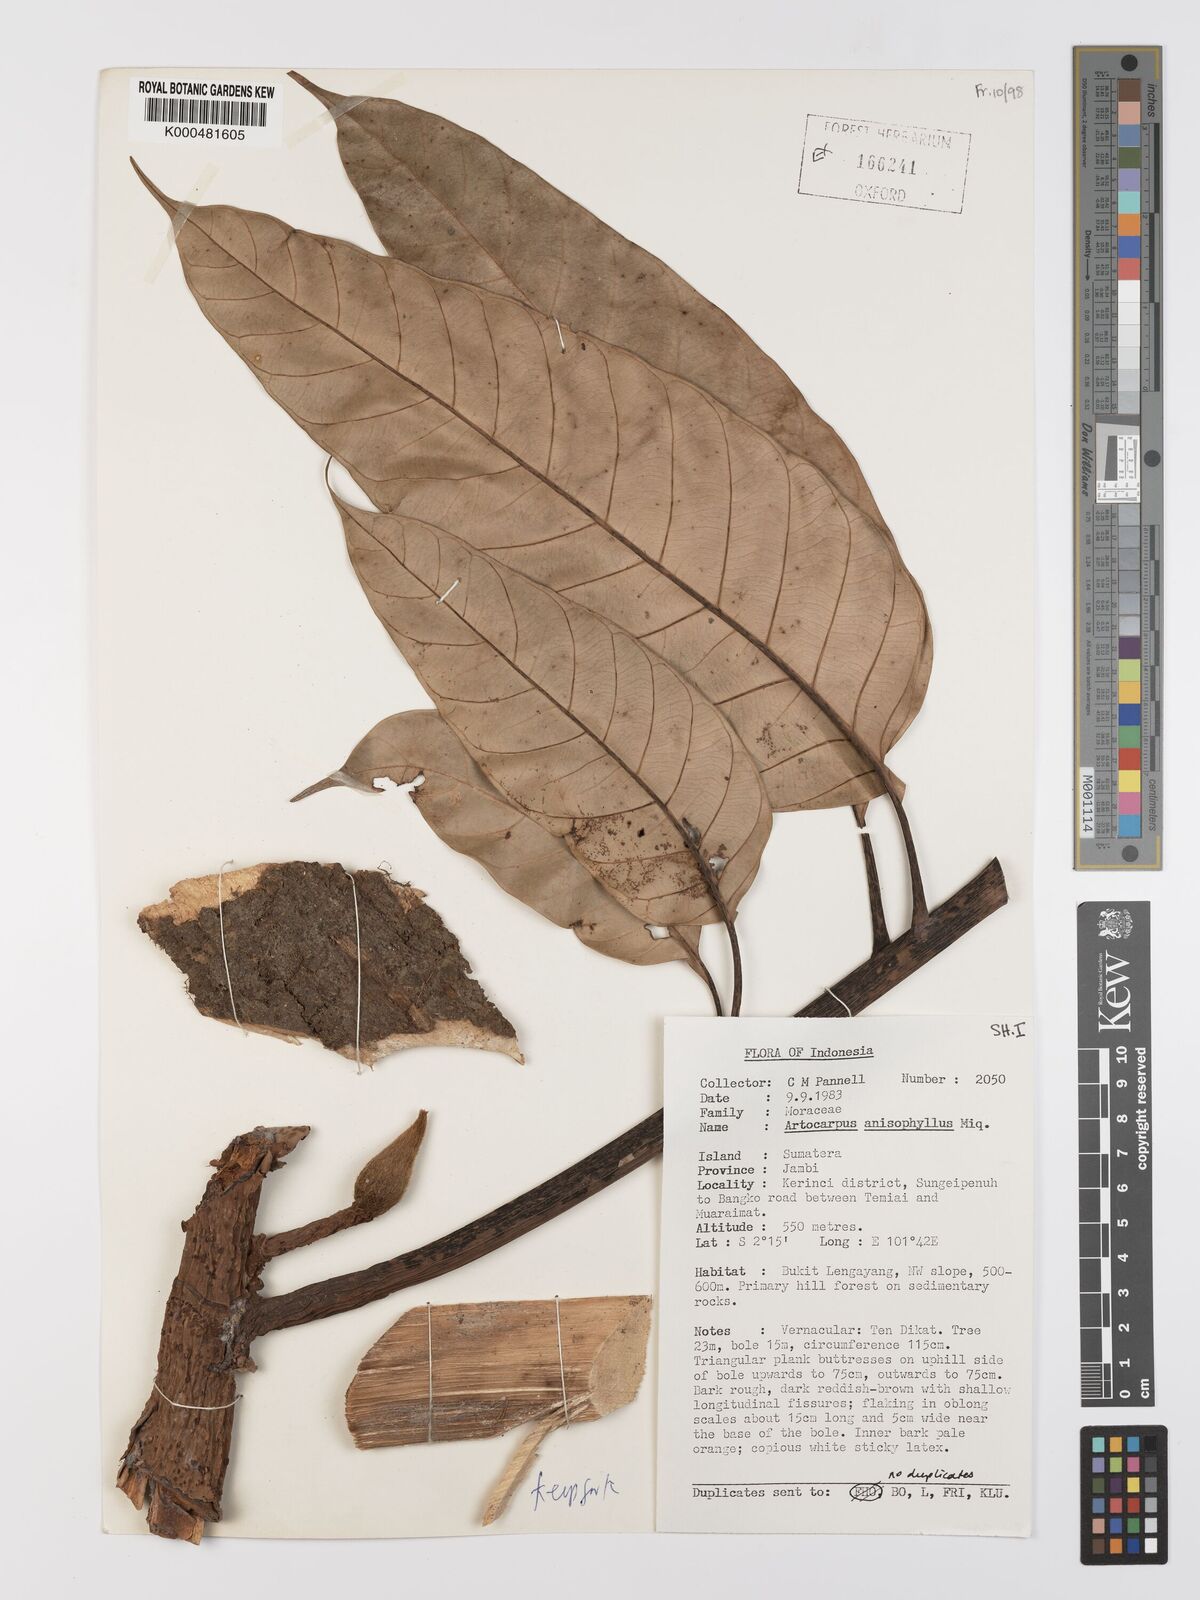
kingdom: Plantae
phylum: Tracheophyta
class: Magnoliopsida
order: Rosales
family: Moraceae
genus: Artocarpus
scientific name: Artocarpus anisophyllus
